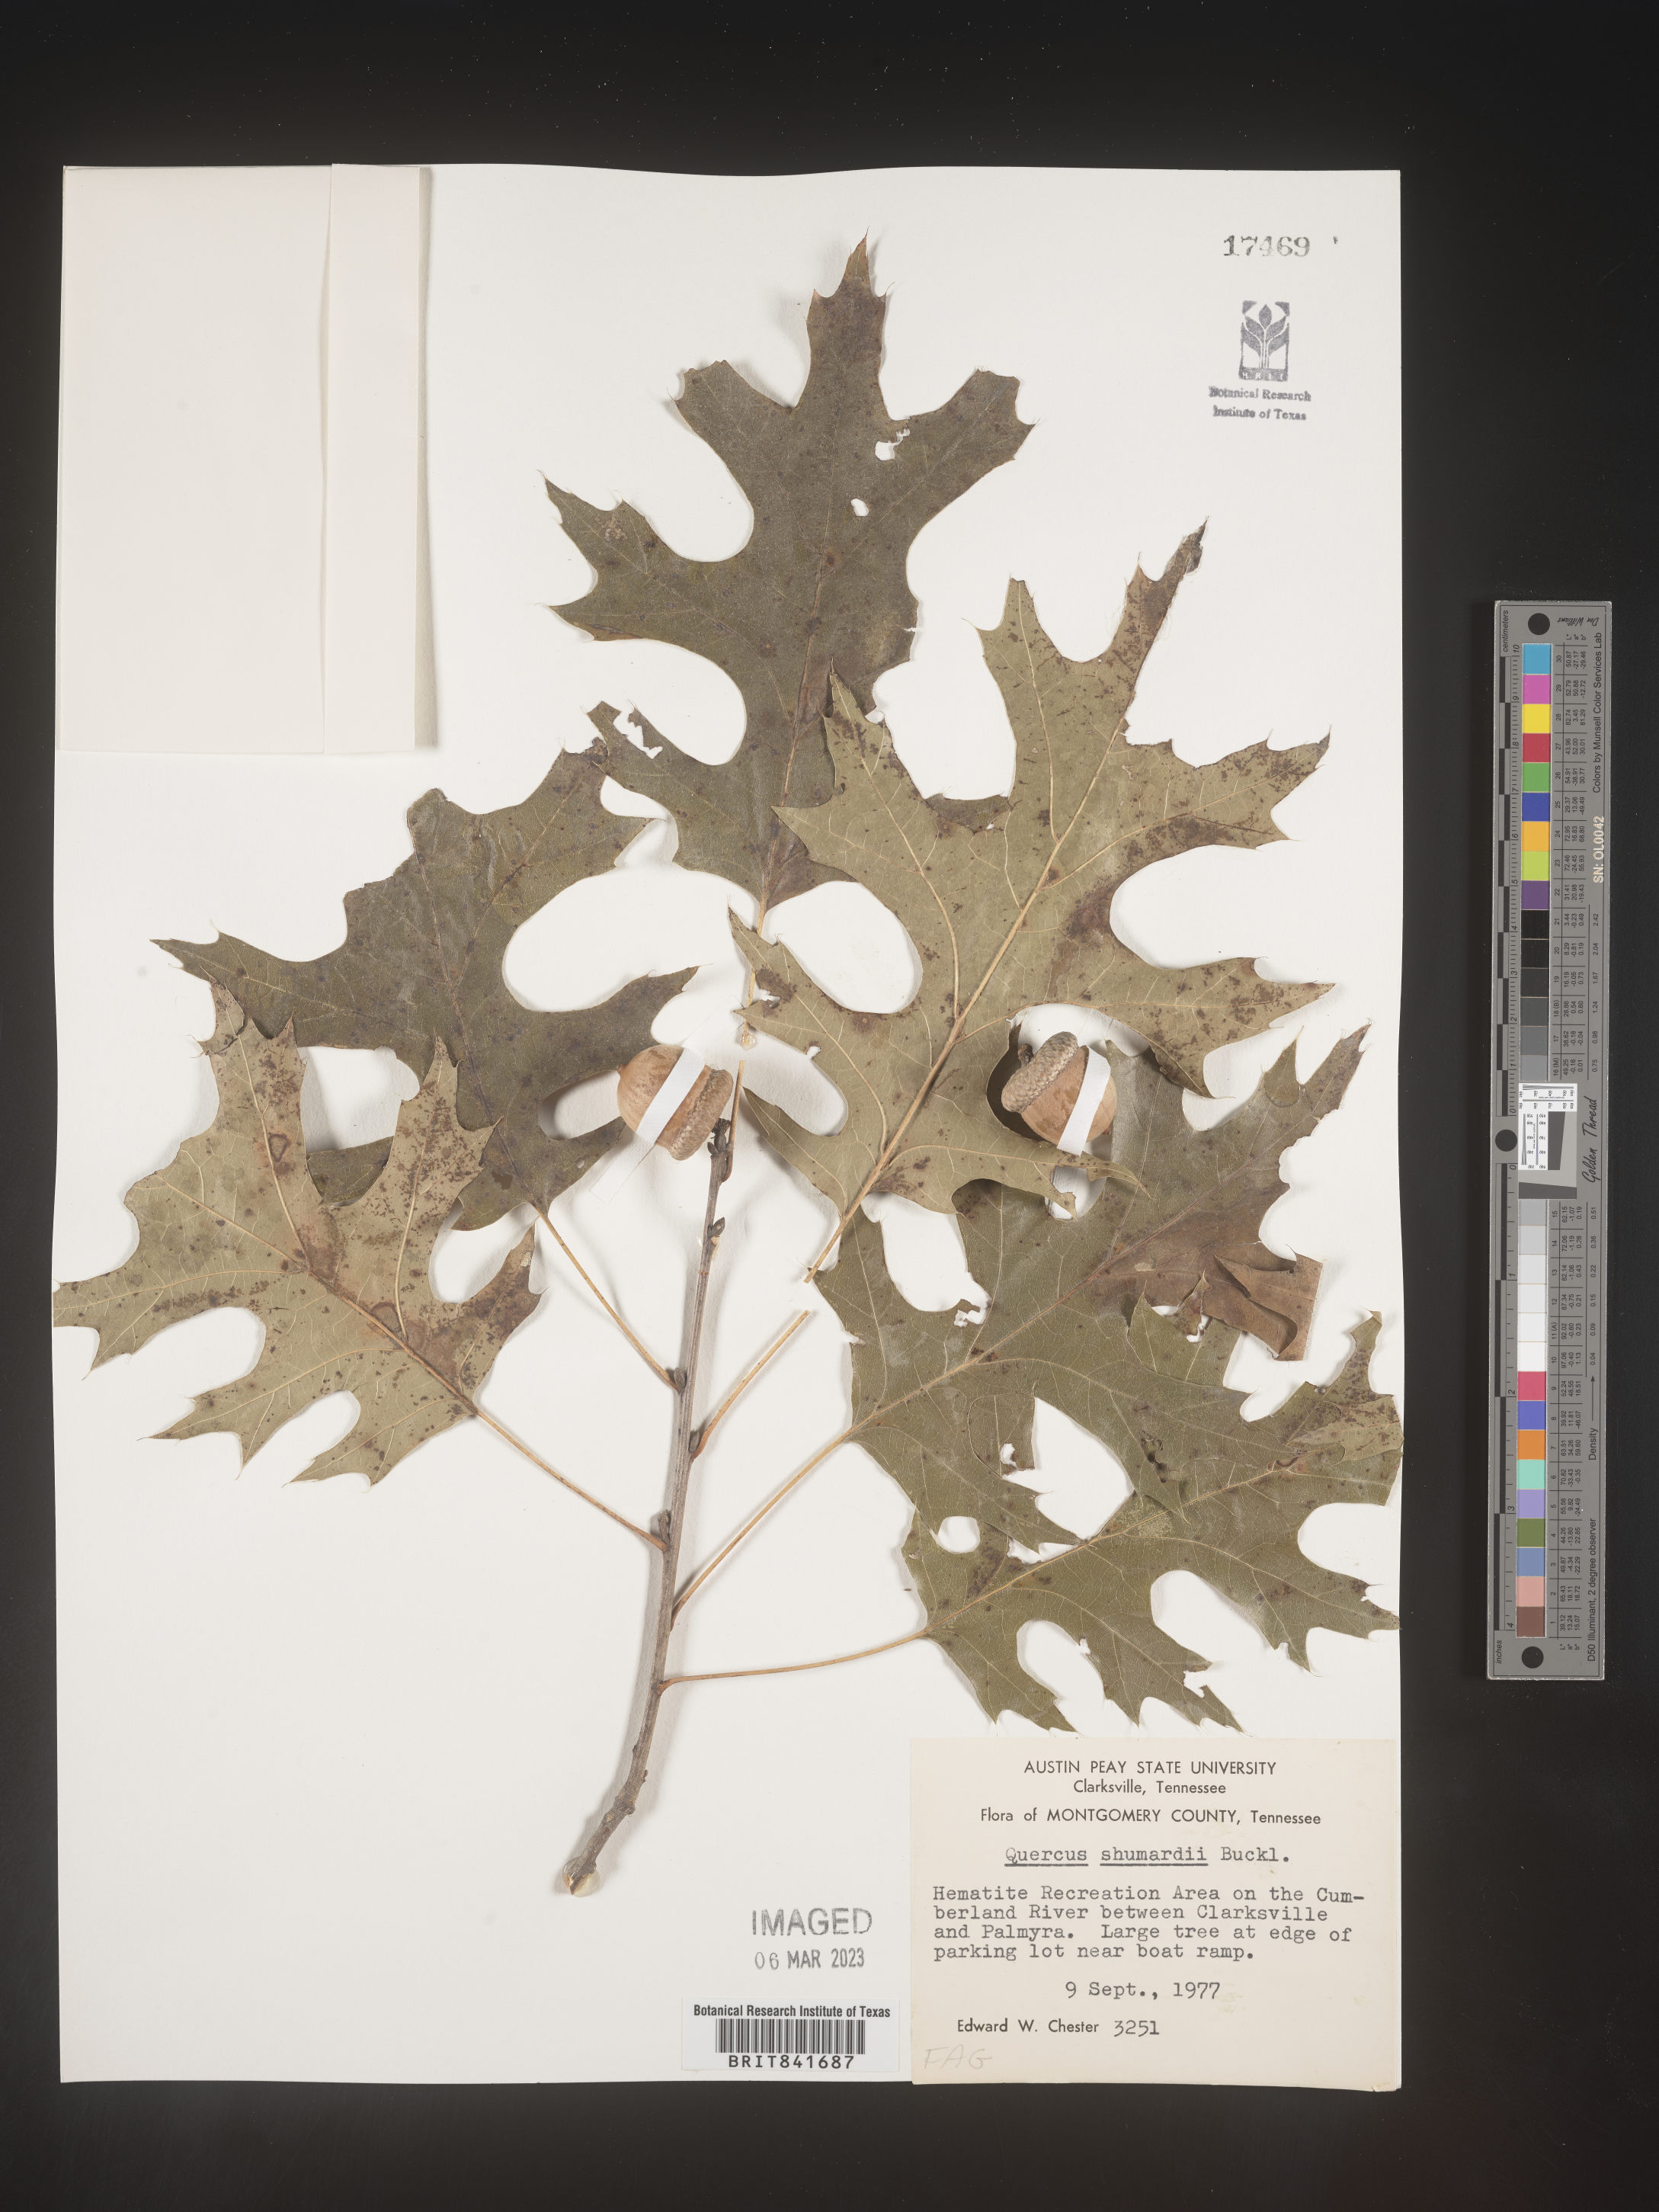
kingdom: Plantae
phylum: Tracheophyta
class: Magnoliopsida
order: Fagales
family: Fagaceae
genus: Quercus
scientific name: Quercus shumardii
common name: Shumard oak
